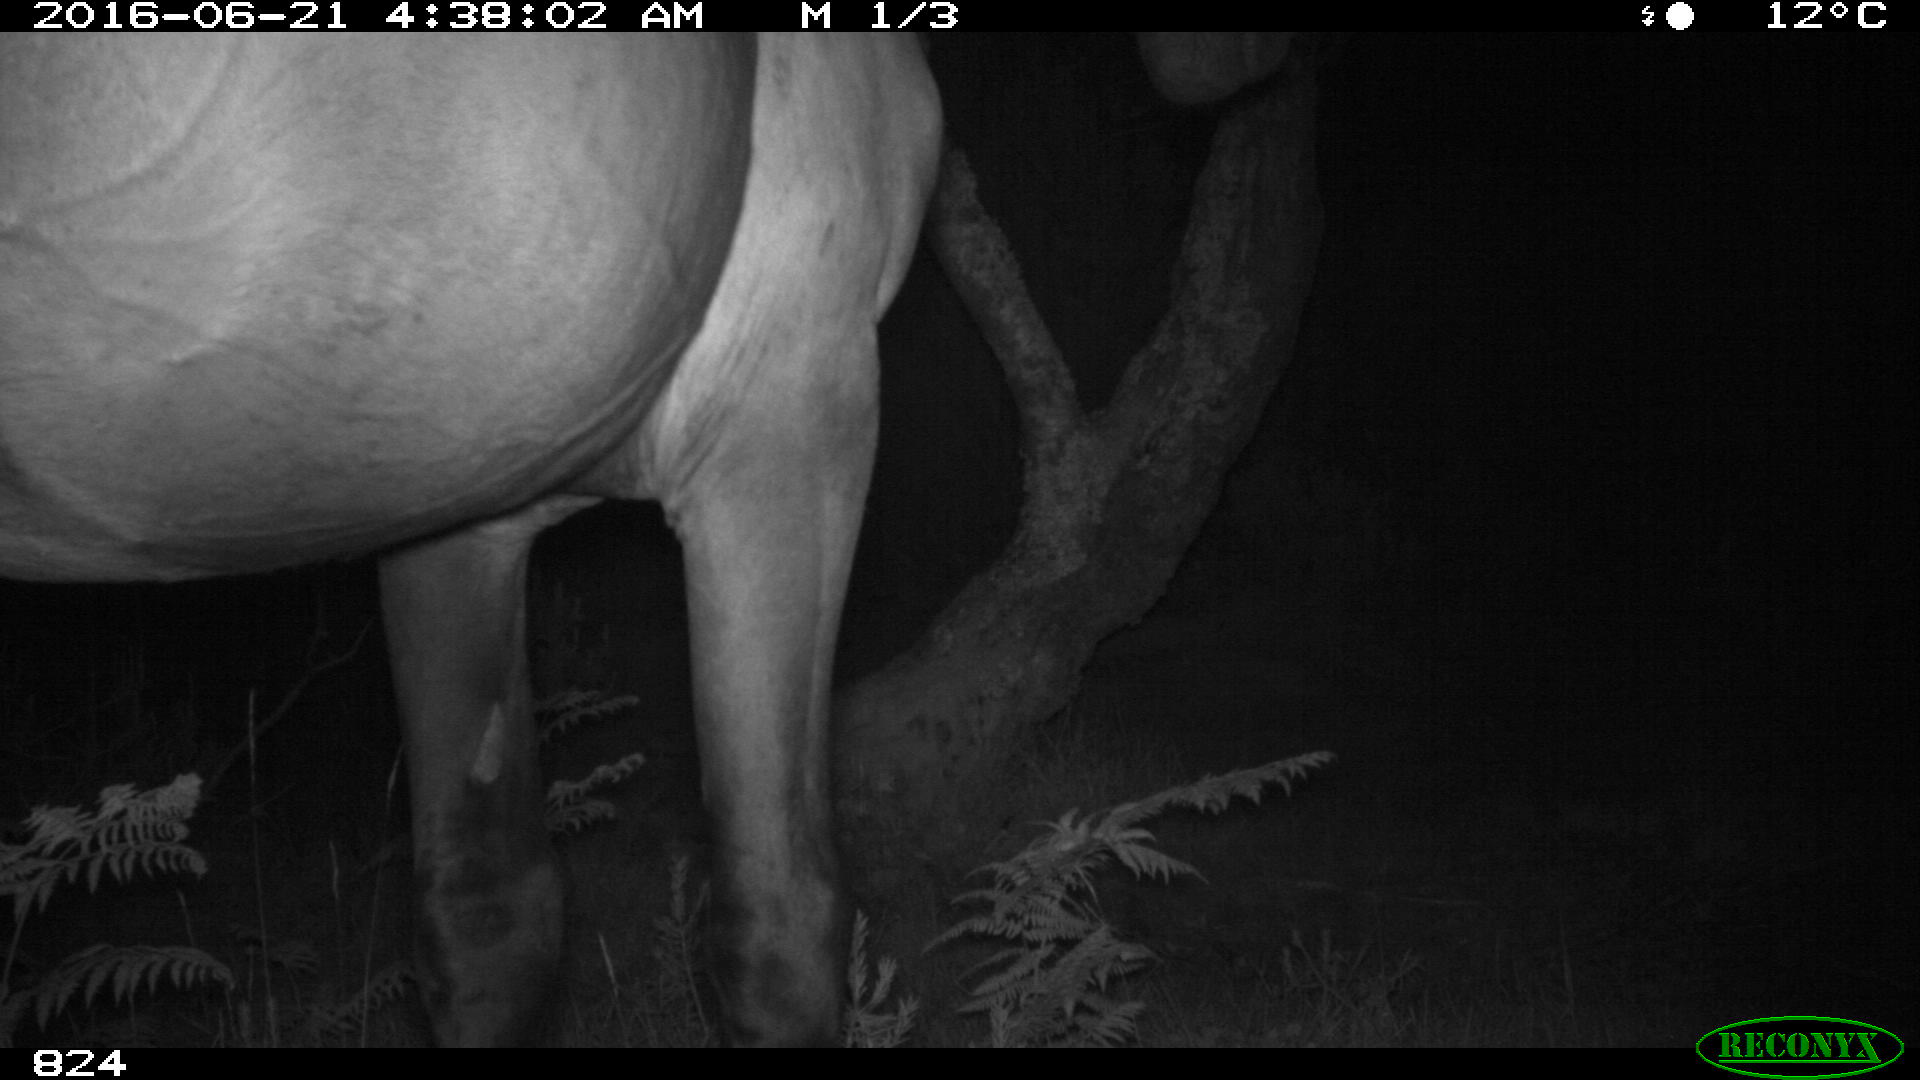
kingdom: Animalia
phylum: Chordata
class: Mammalia
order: Perissodactyla
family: Equidae
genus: Equus
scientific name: Equus caballus
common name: Horse
